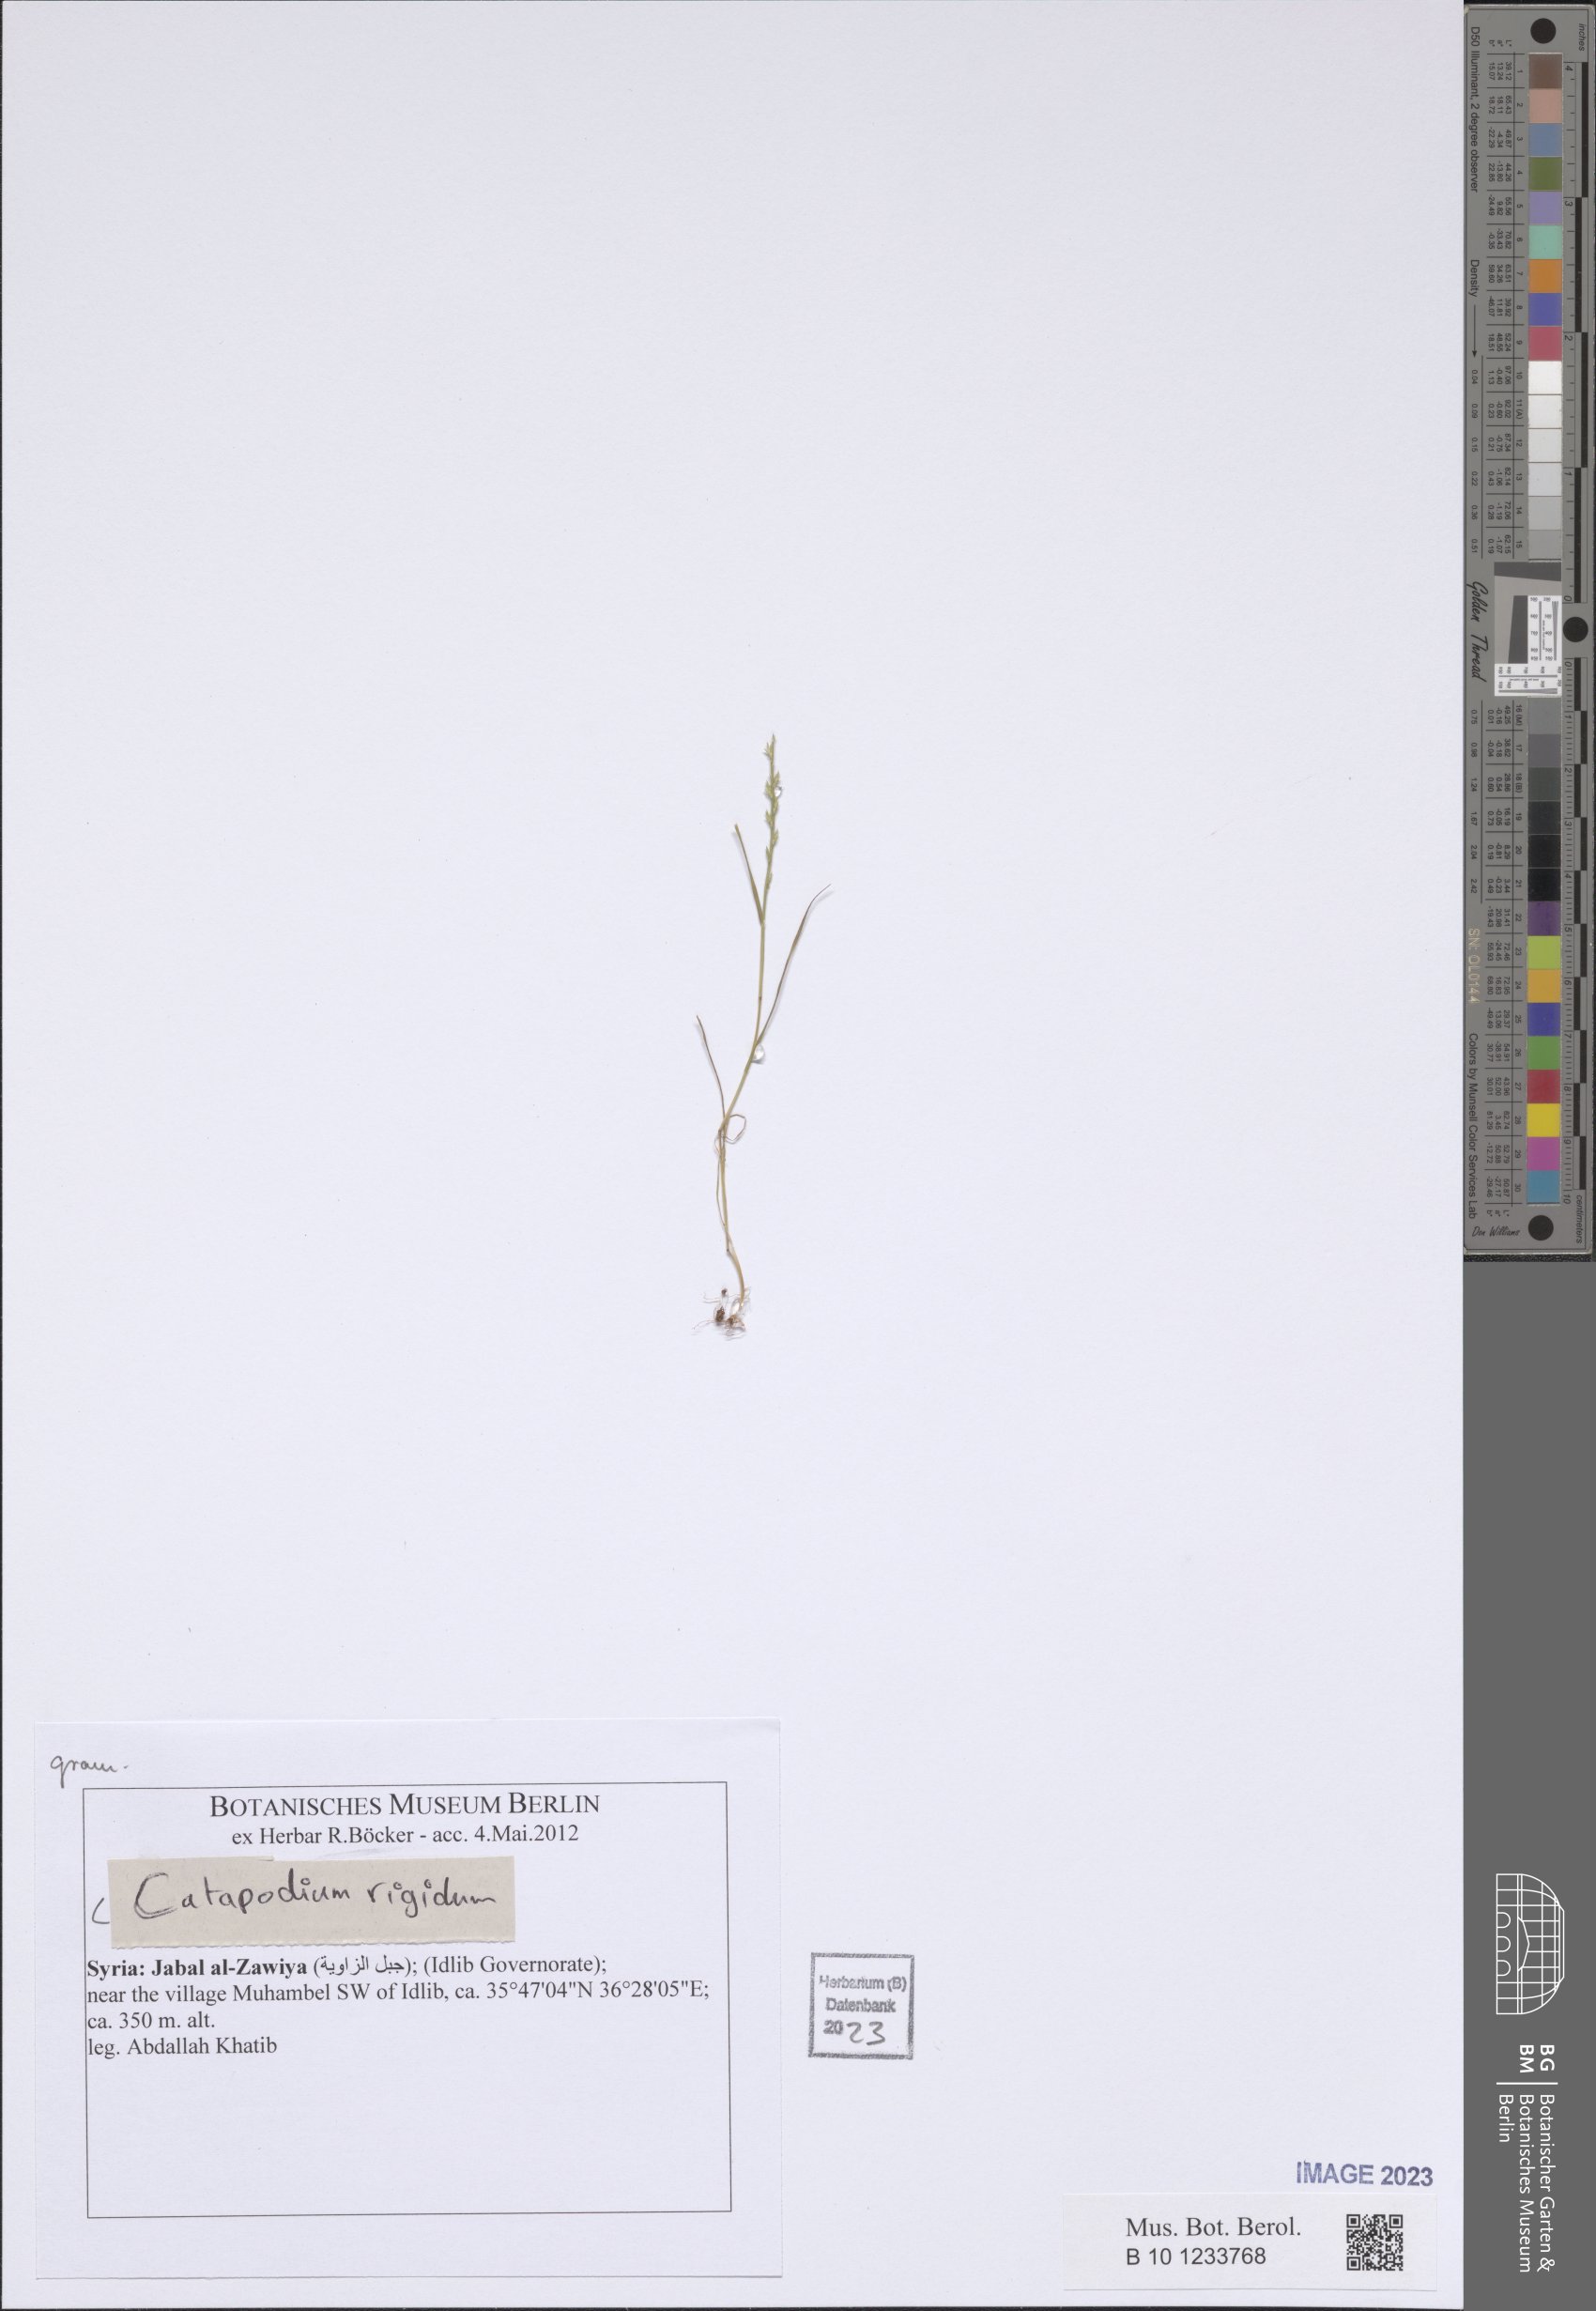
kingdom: Plantae
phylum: Tracheophyta
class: Liliopsida
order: Poales
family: Poaceae
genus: Catapodium
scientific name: Catapodium rigidum
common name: Fern-grass
